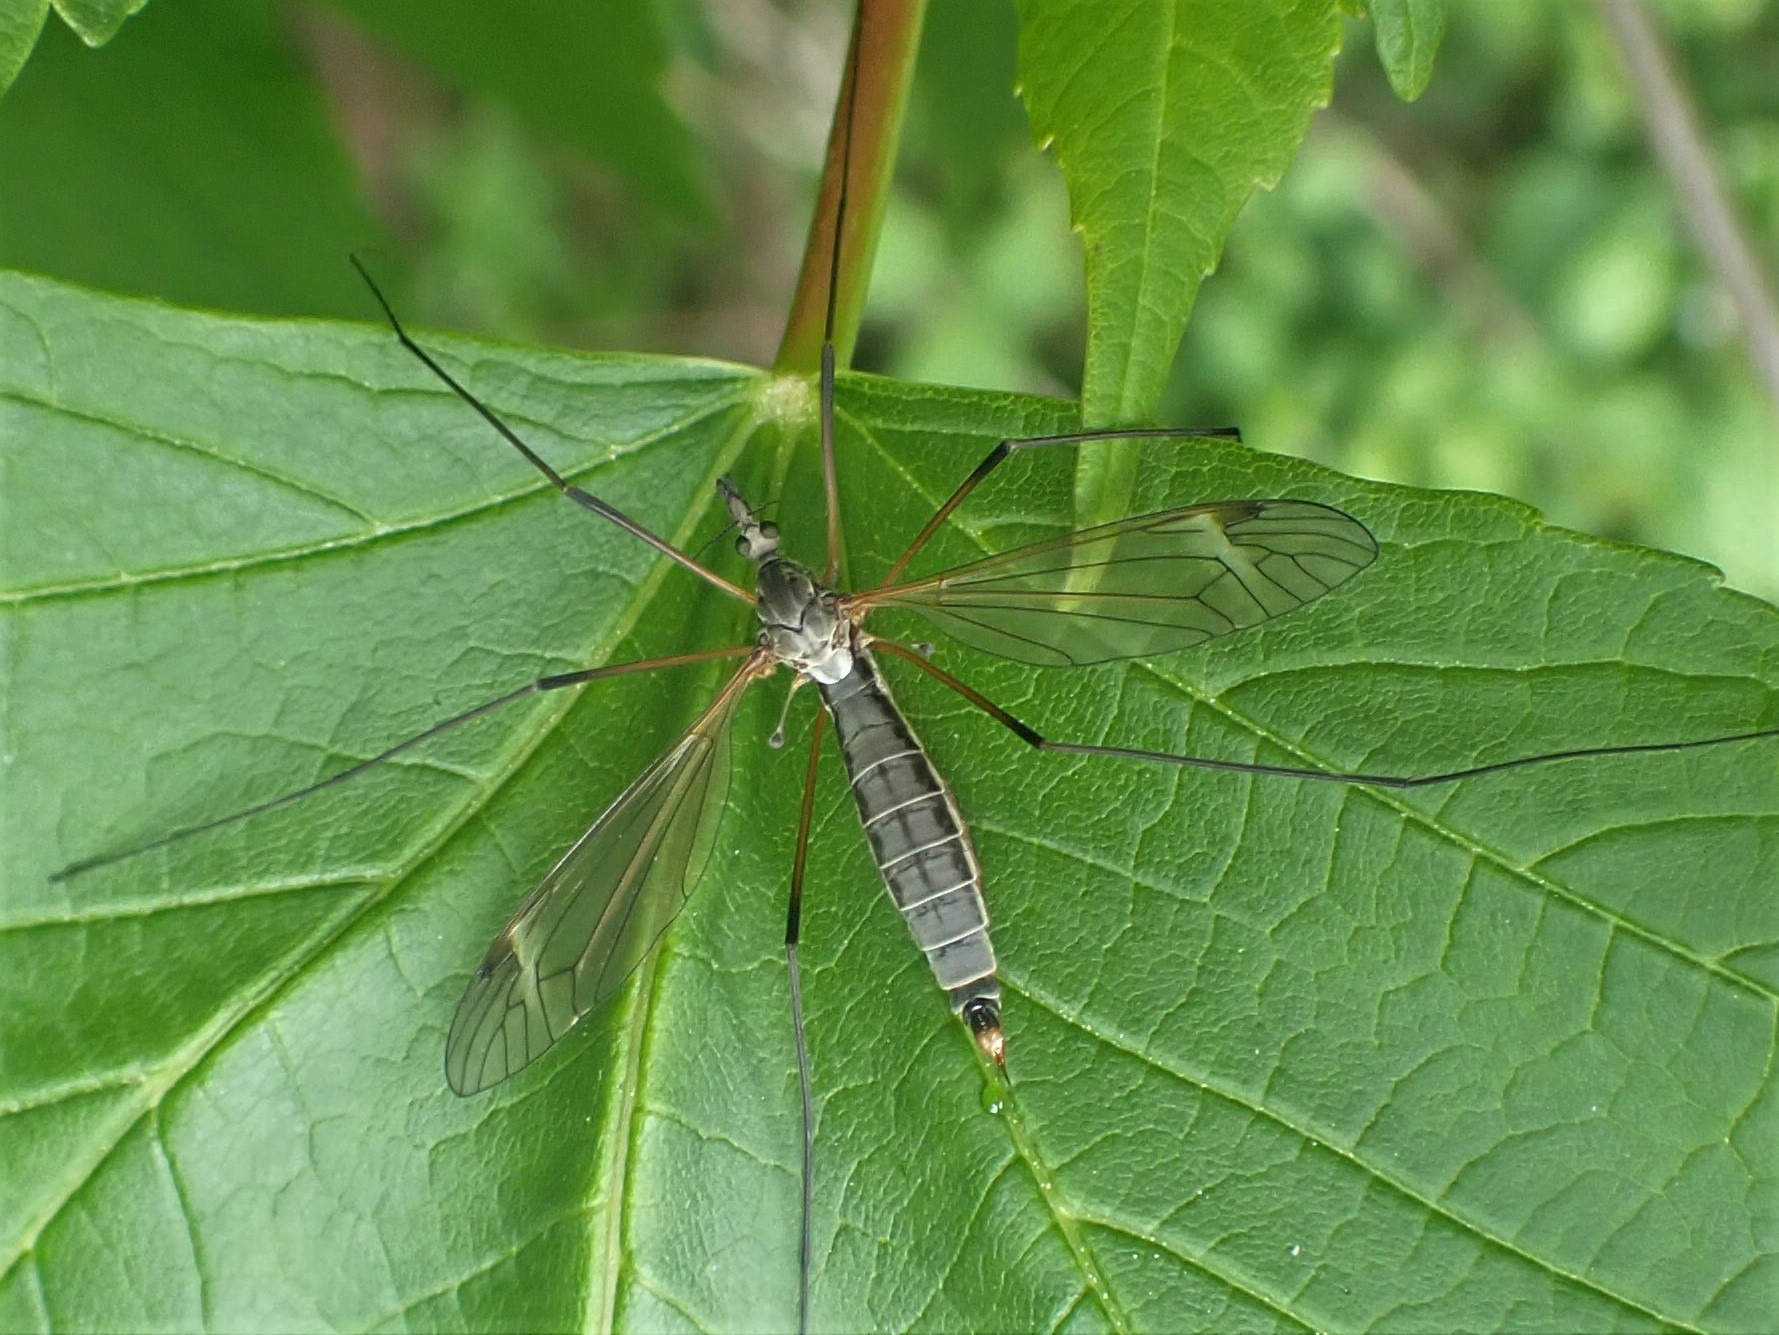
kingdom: Animalia
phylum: Arthropoda
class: Insecta
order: Diptera
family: Tipulidae
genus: Tipula
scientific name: Tipula luna
